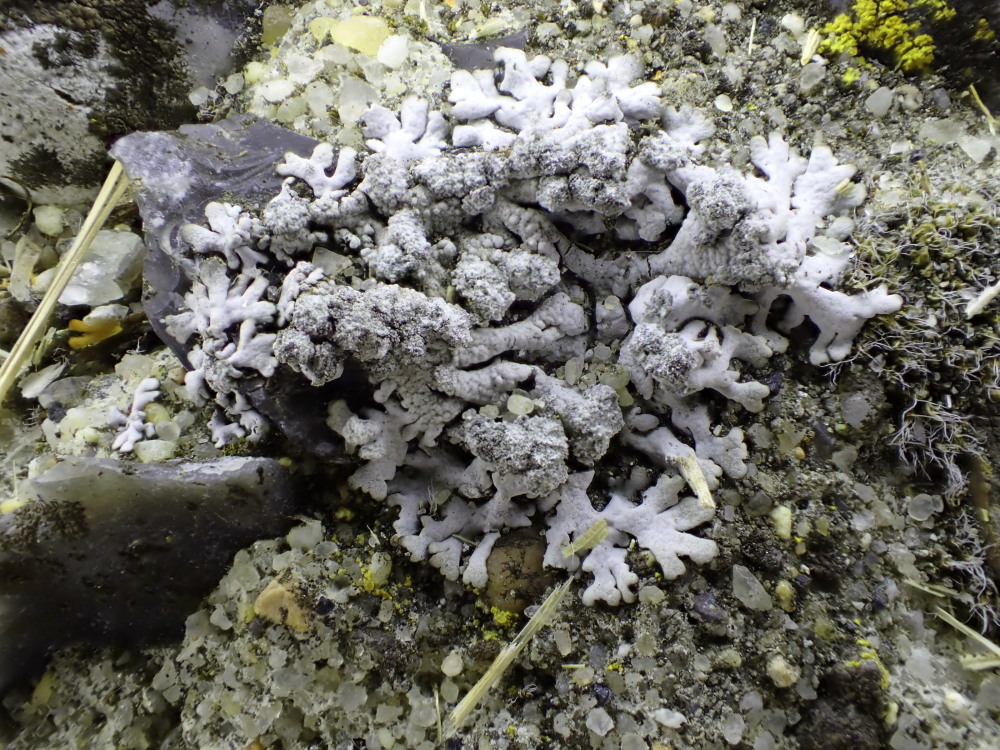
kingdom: Fungi
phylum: Ascomycota
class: Lecanoromycetes
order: Caliciales
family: Physciaceae
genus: Physcia
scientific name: Physcia caesia
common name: blågrå rosetlav
